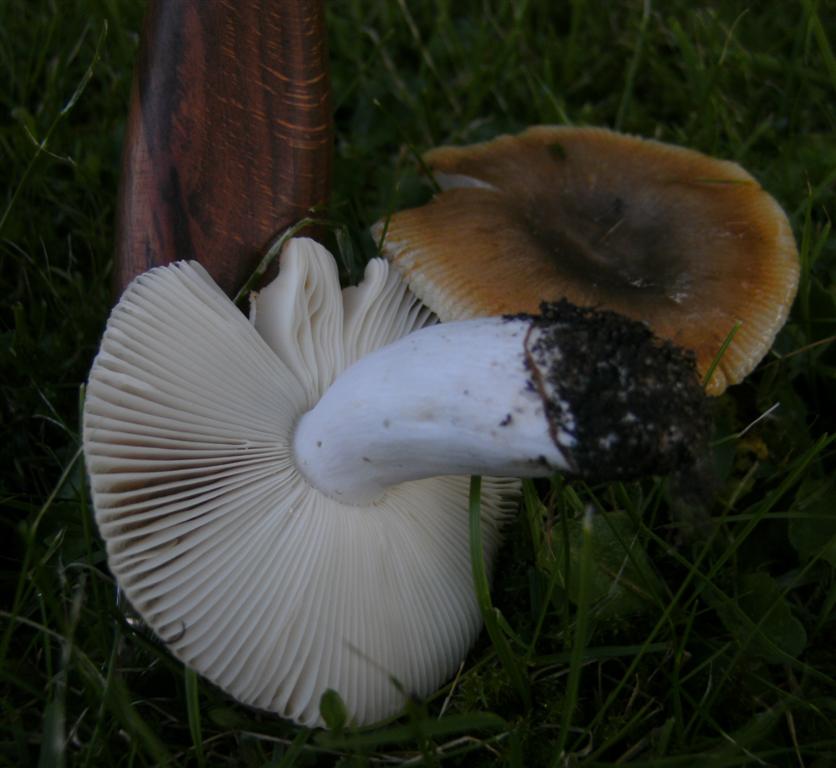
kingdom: Fungi
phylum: Basidiomycota
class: Agaricomycetes
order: Russulales
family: Russulaceae
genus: Russula
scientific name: Russula
